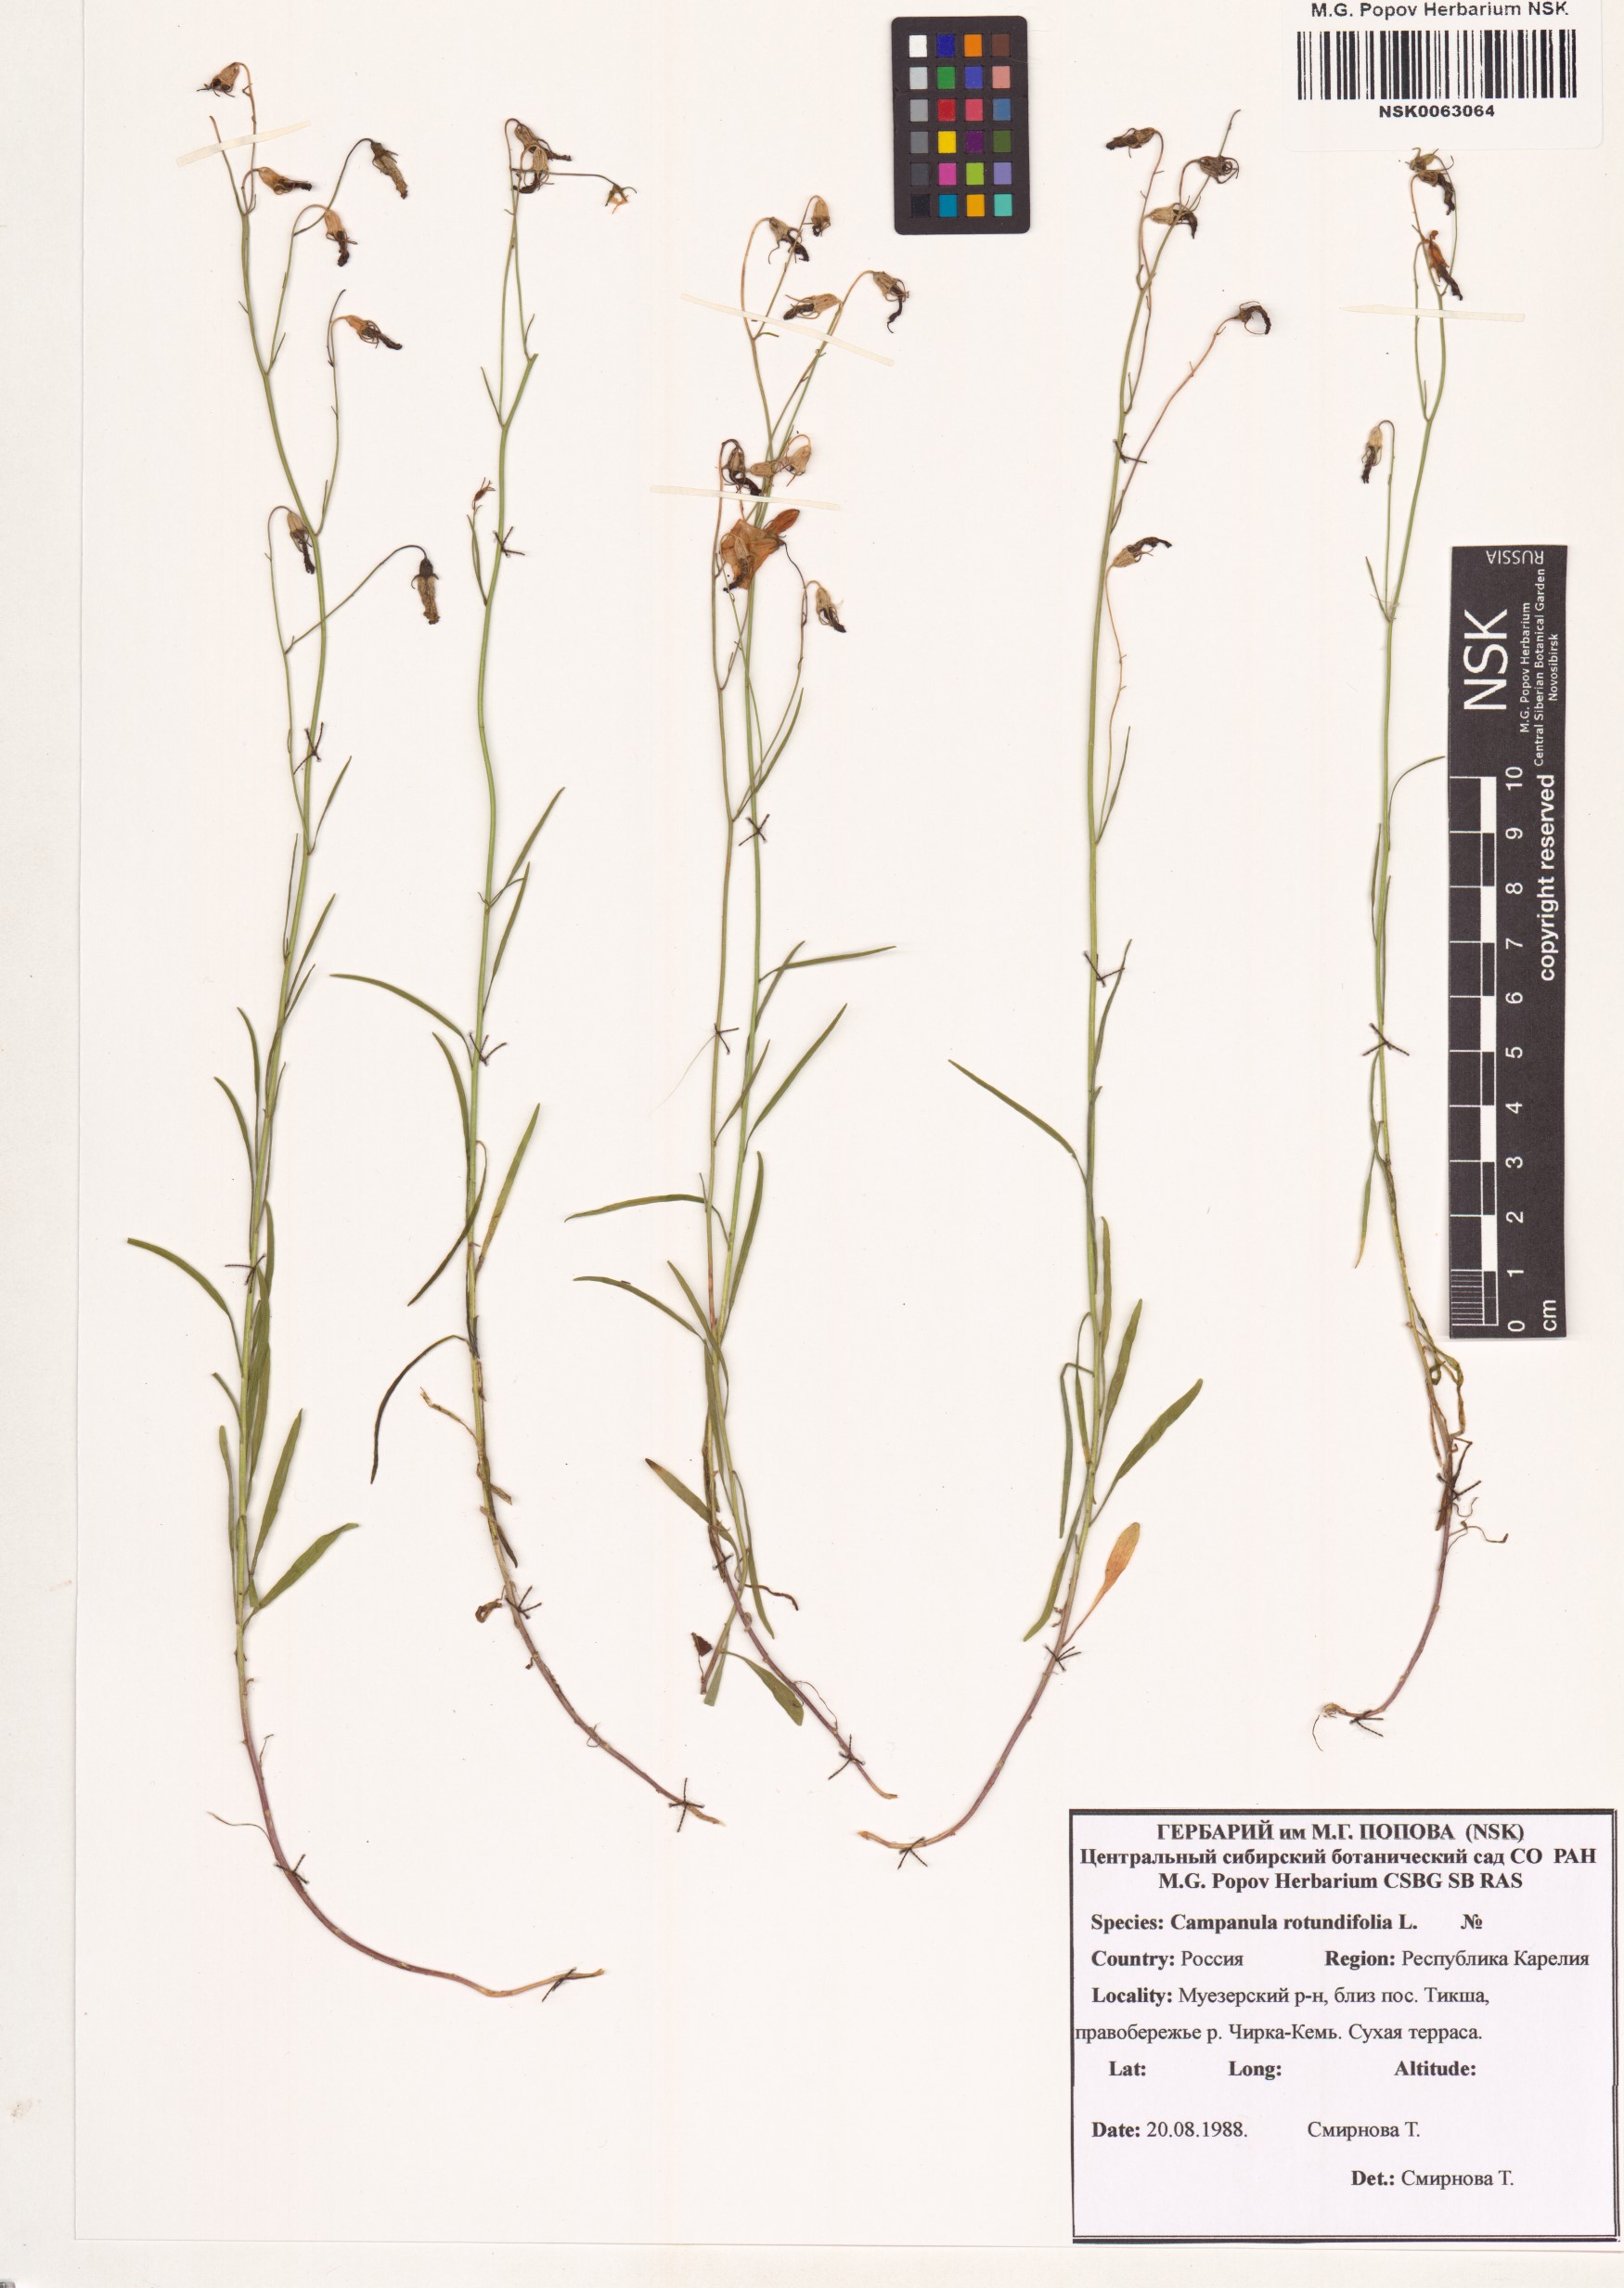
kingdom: Plantae
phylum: Tracheophyta
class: Magnoliopsida
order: Asterales
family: Campanulaceae
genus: Campanula
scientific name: Campanula rotundifolia
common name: Harebell
